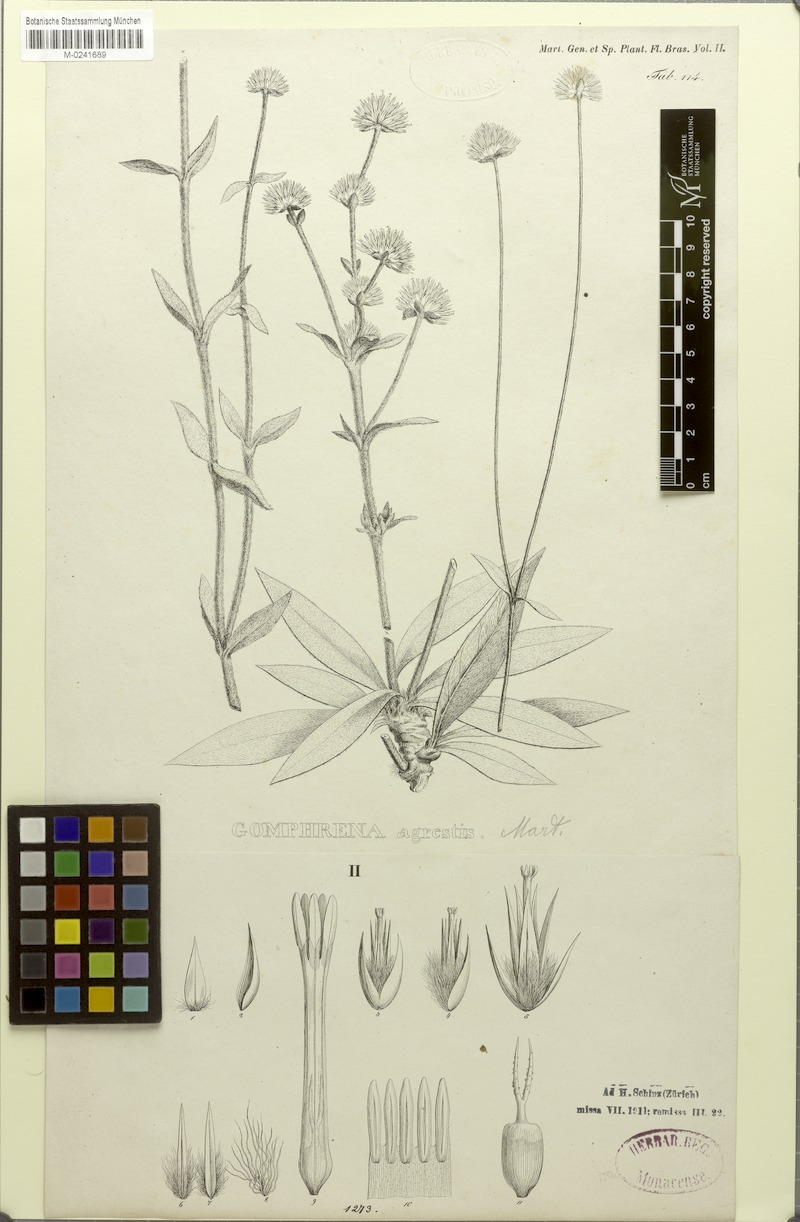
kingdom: Plantae
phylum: Tracheophyta
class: Magnoliopsida
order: Caryophyllales
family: Amaranthaceae
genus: Gomphrena
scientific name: Gomphrena agrestis
